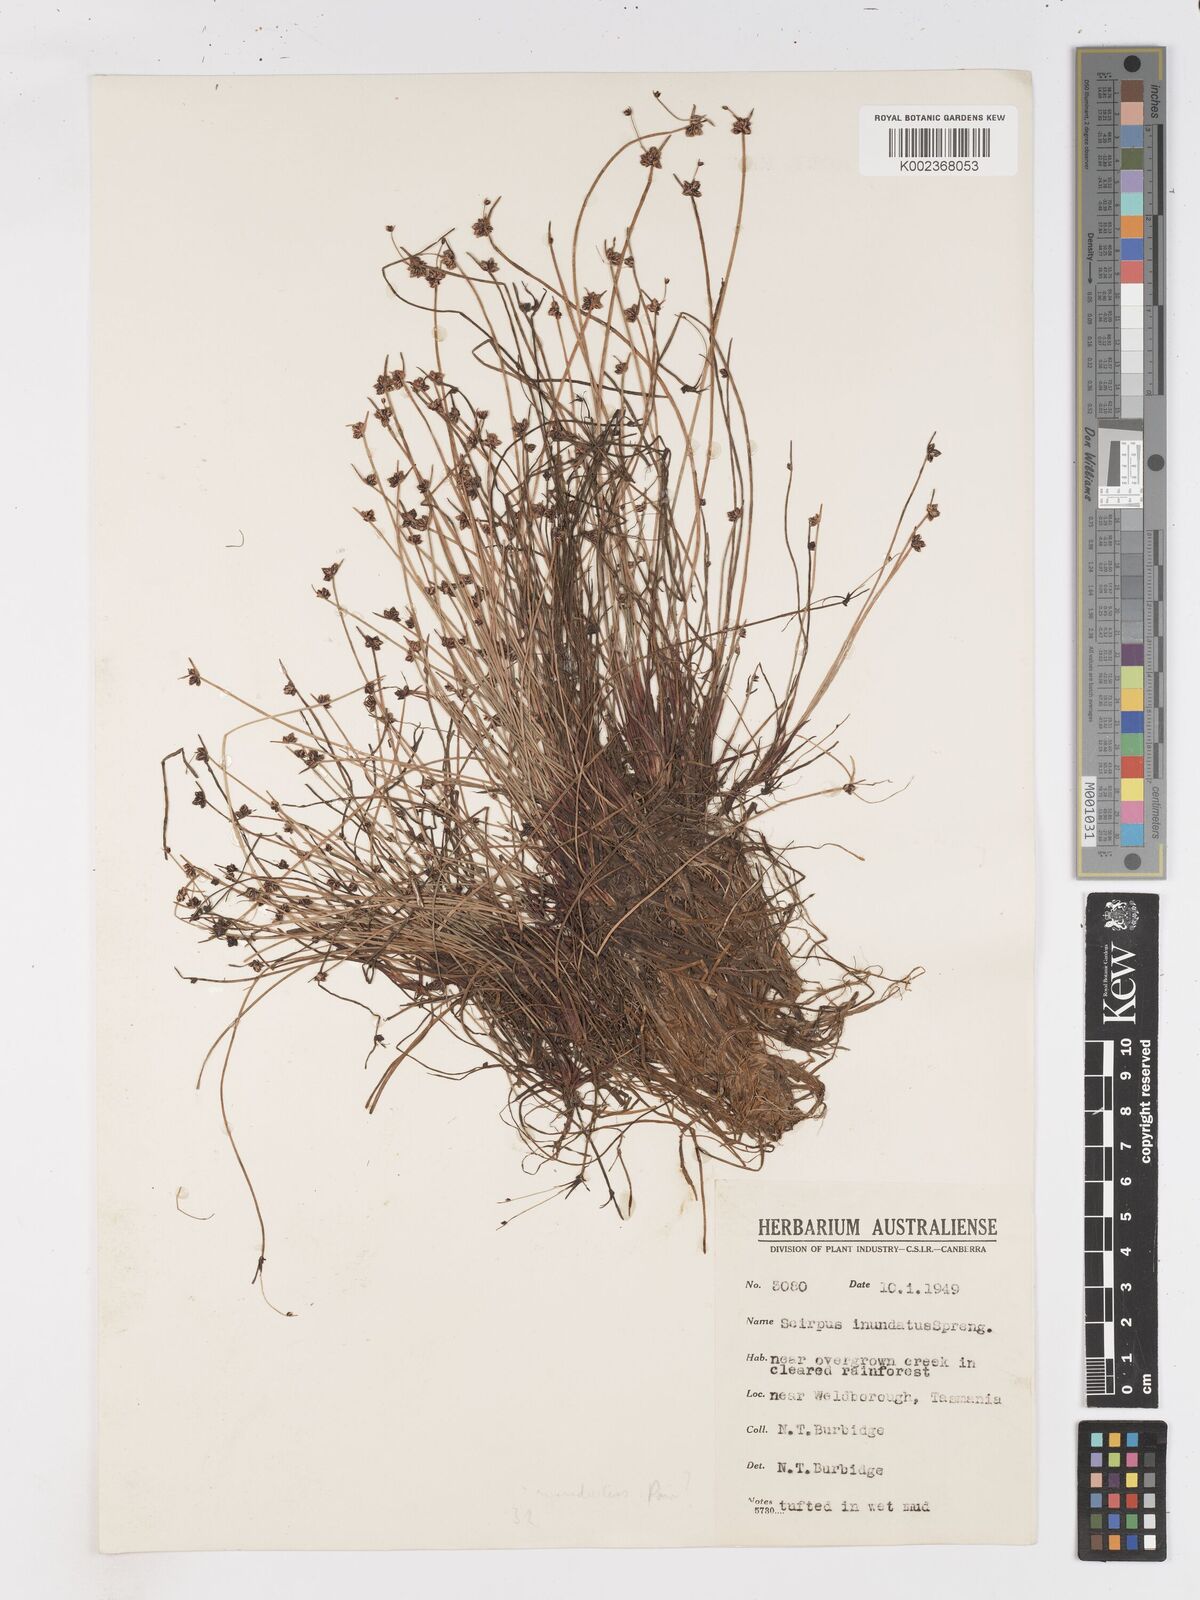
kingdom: Plantae
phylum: Tracheophyta
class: Liliopsida
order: Poales
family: Cyperaceae
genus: Isolepis
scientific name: Isolepis inundata
